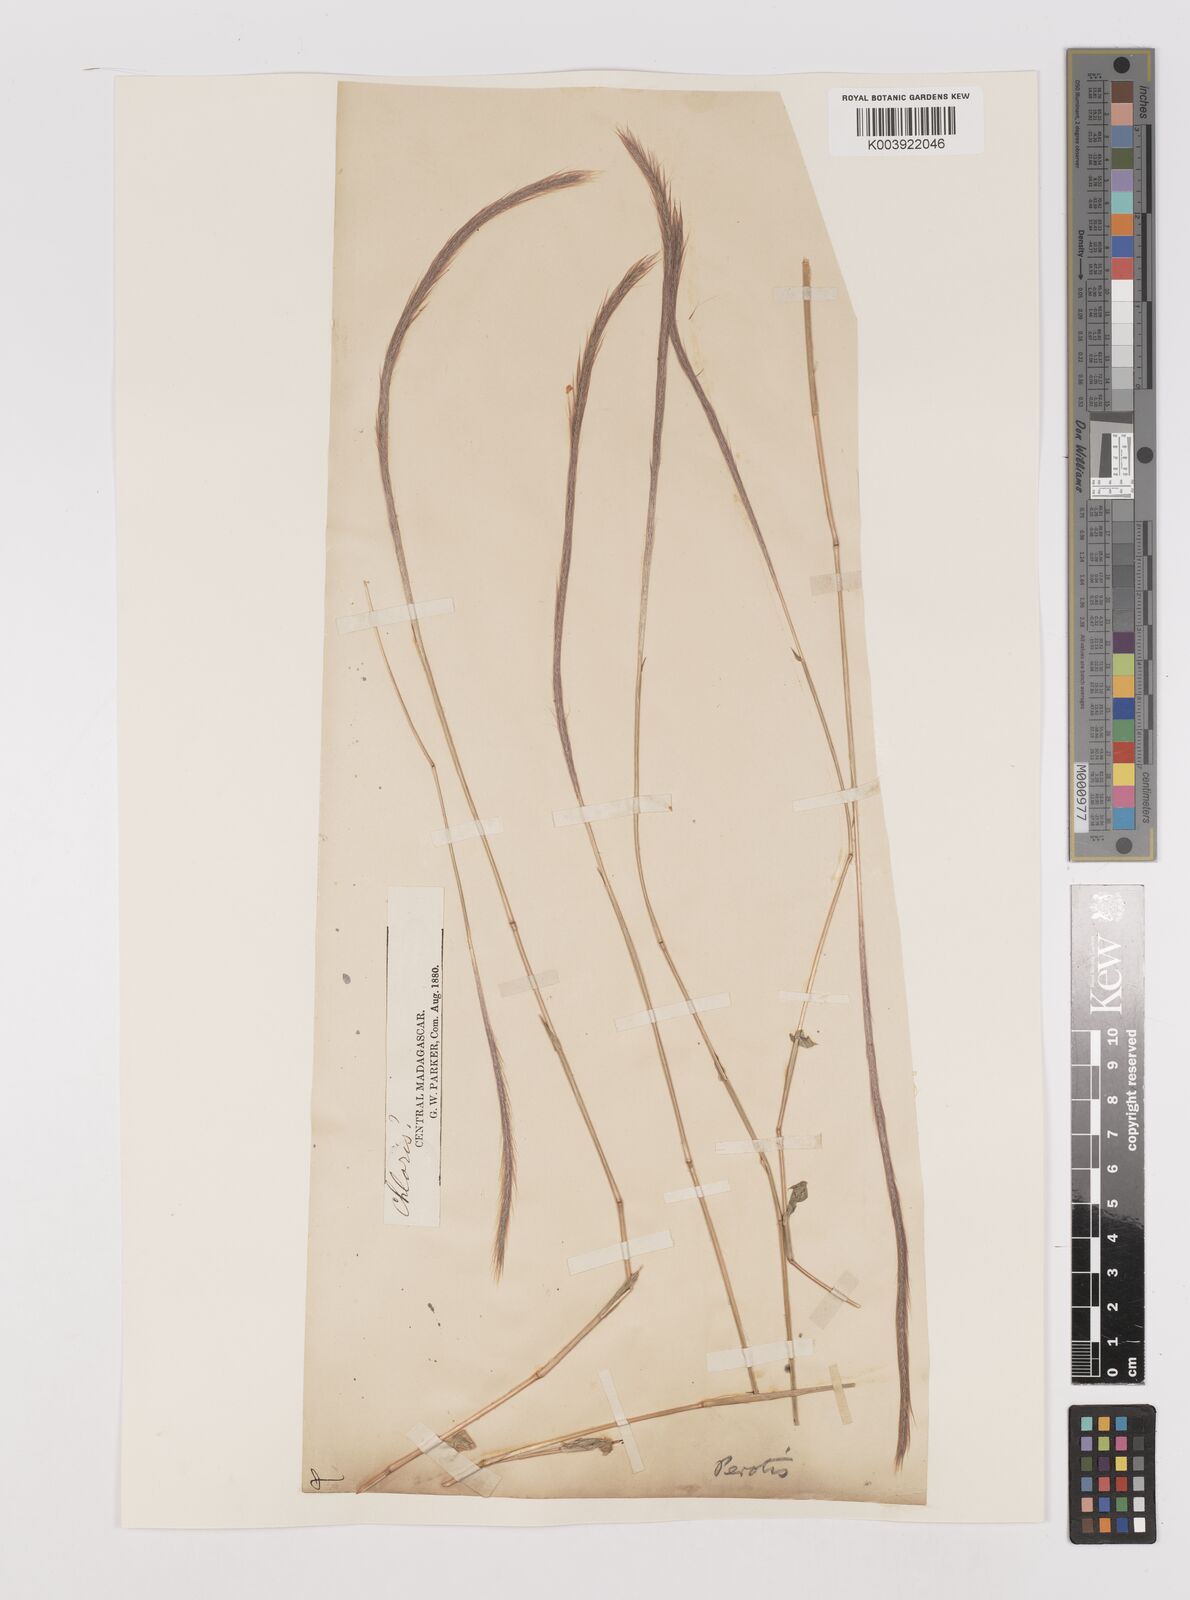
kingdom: Plantae
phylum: Tracheophyta
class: Liliopsida
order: Poales
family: Poaceae
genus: Perotis
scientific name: Perotis patens
